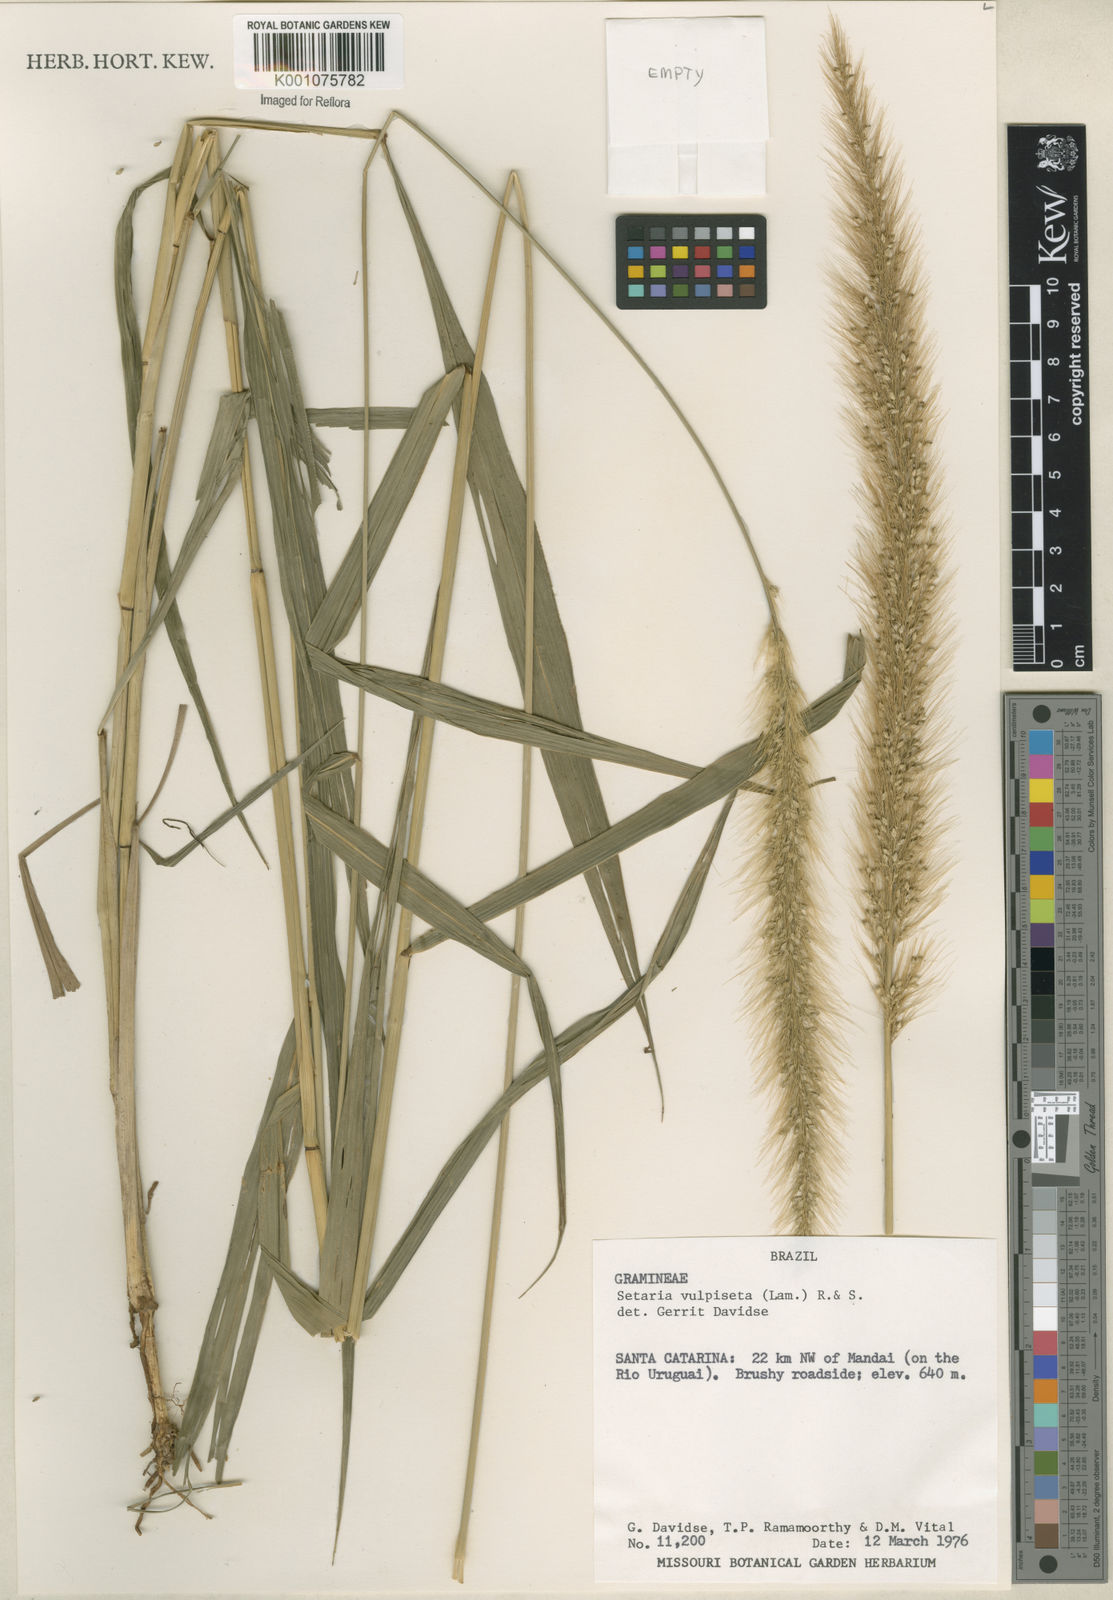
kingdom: Plantae
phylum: Tracheophyta
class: Liliopsida
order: Poales
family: Poaceae
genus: Setaria
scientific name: Setaria vulpiseta
